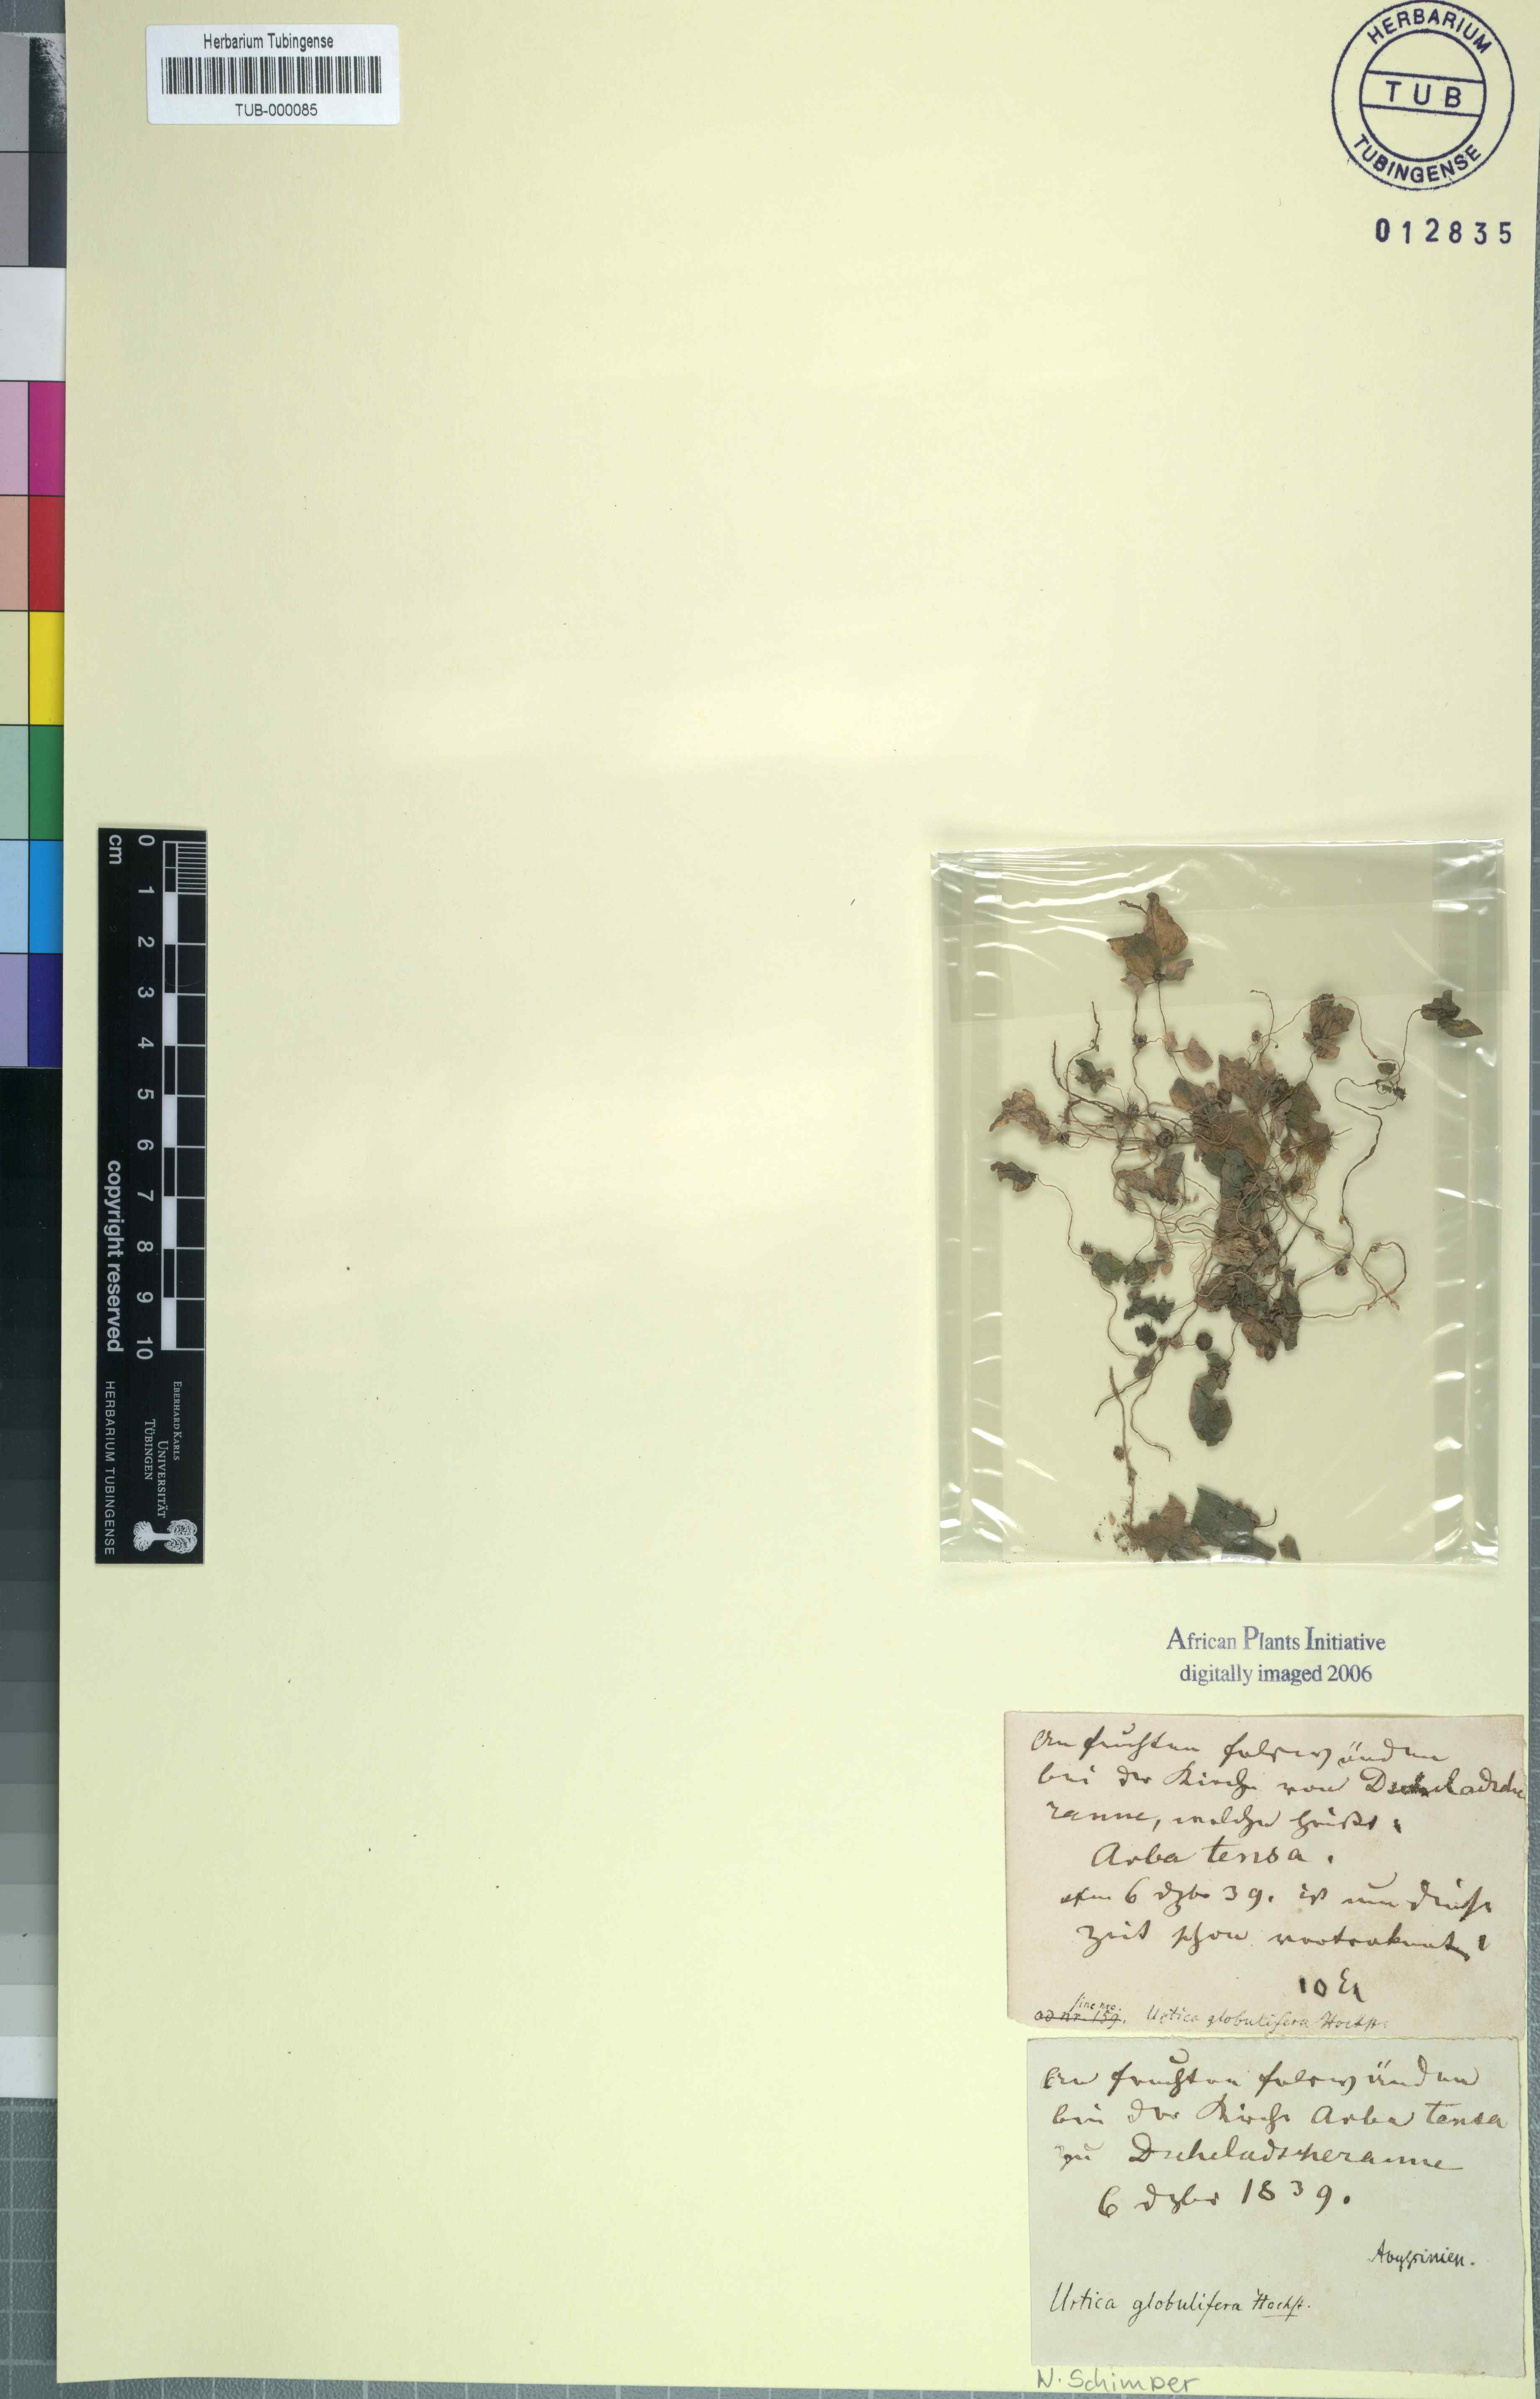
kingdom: Plantae
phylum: Tracheophyta
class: Magnoliopsida
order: Rosales
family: Urticaceae
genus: Urtica
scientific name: Urtica globulifera
